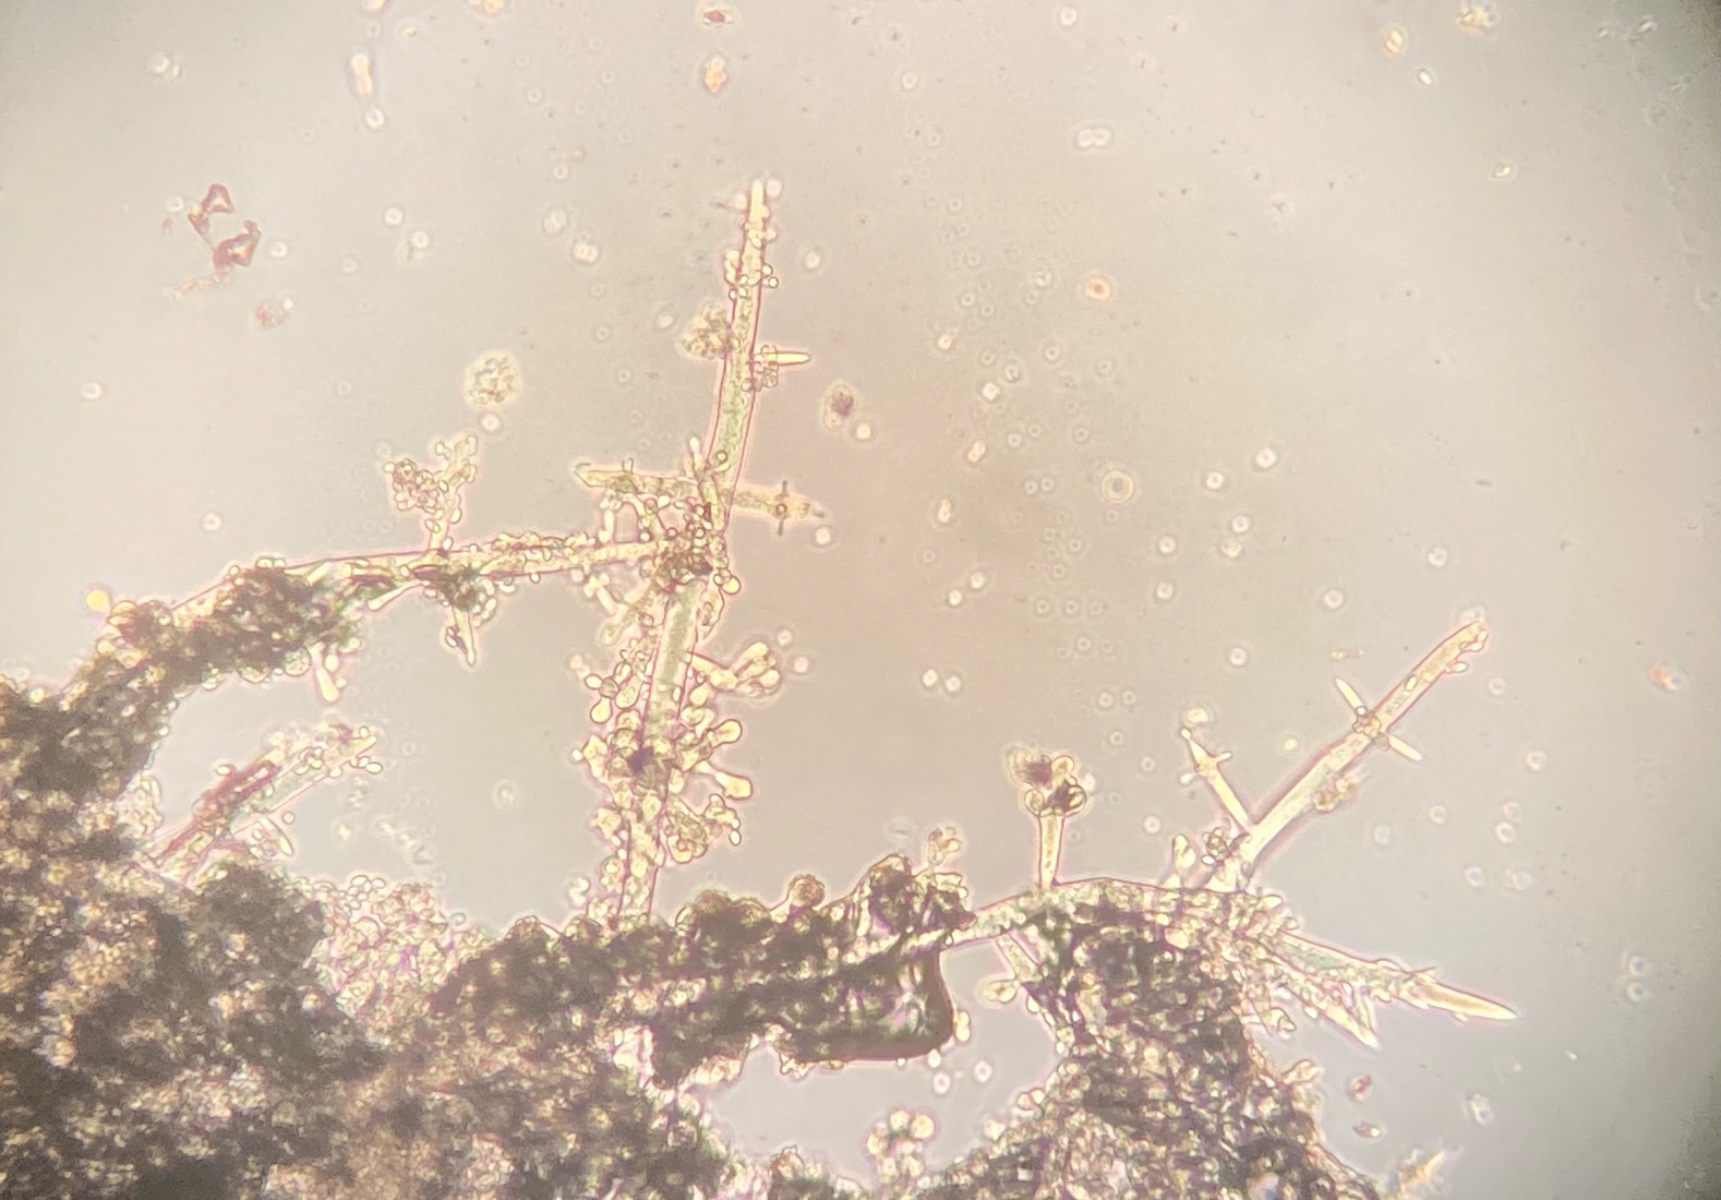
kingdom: Fungi
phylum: Ascomycota
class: Sordariomycetes
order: Boliniales
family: Catabotrydaceae
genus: Botryosporium
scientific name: Botryosporium pulchrum
